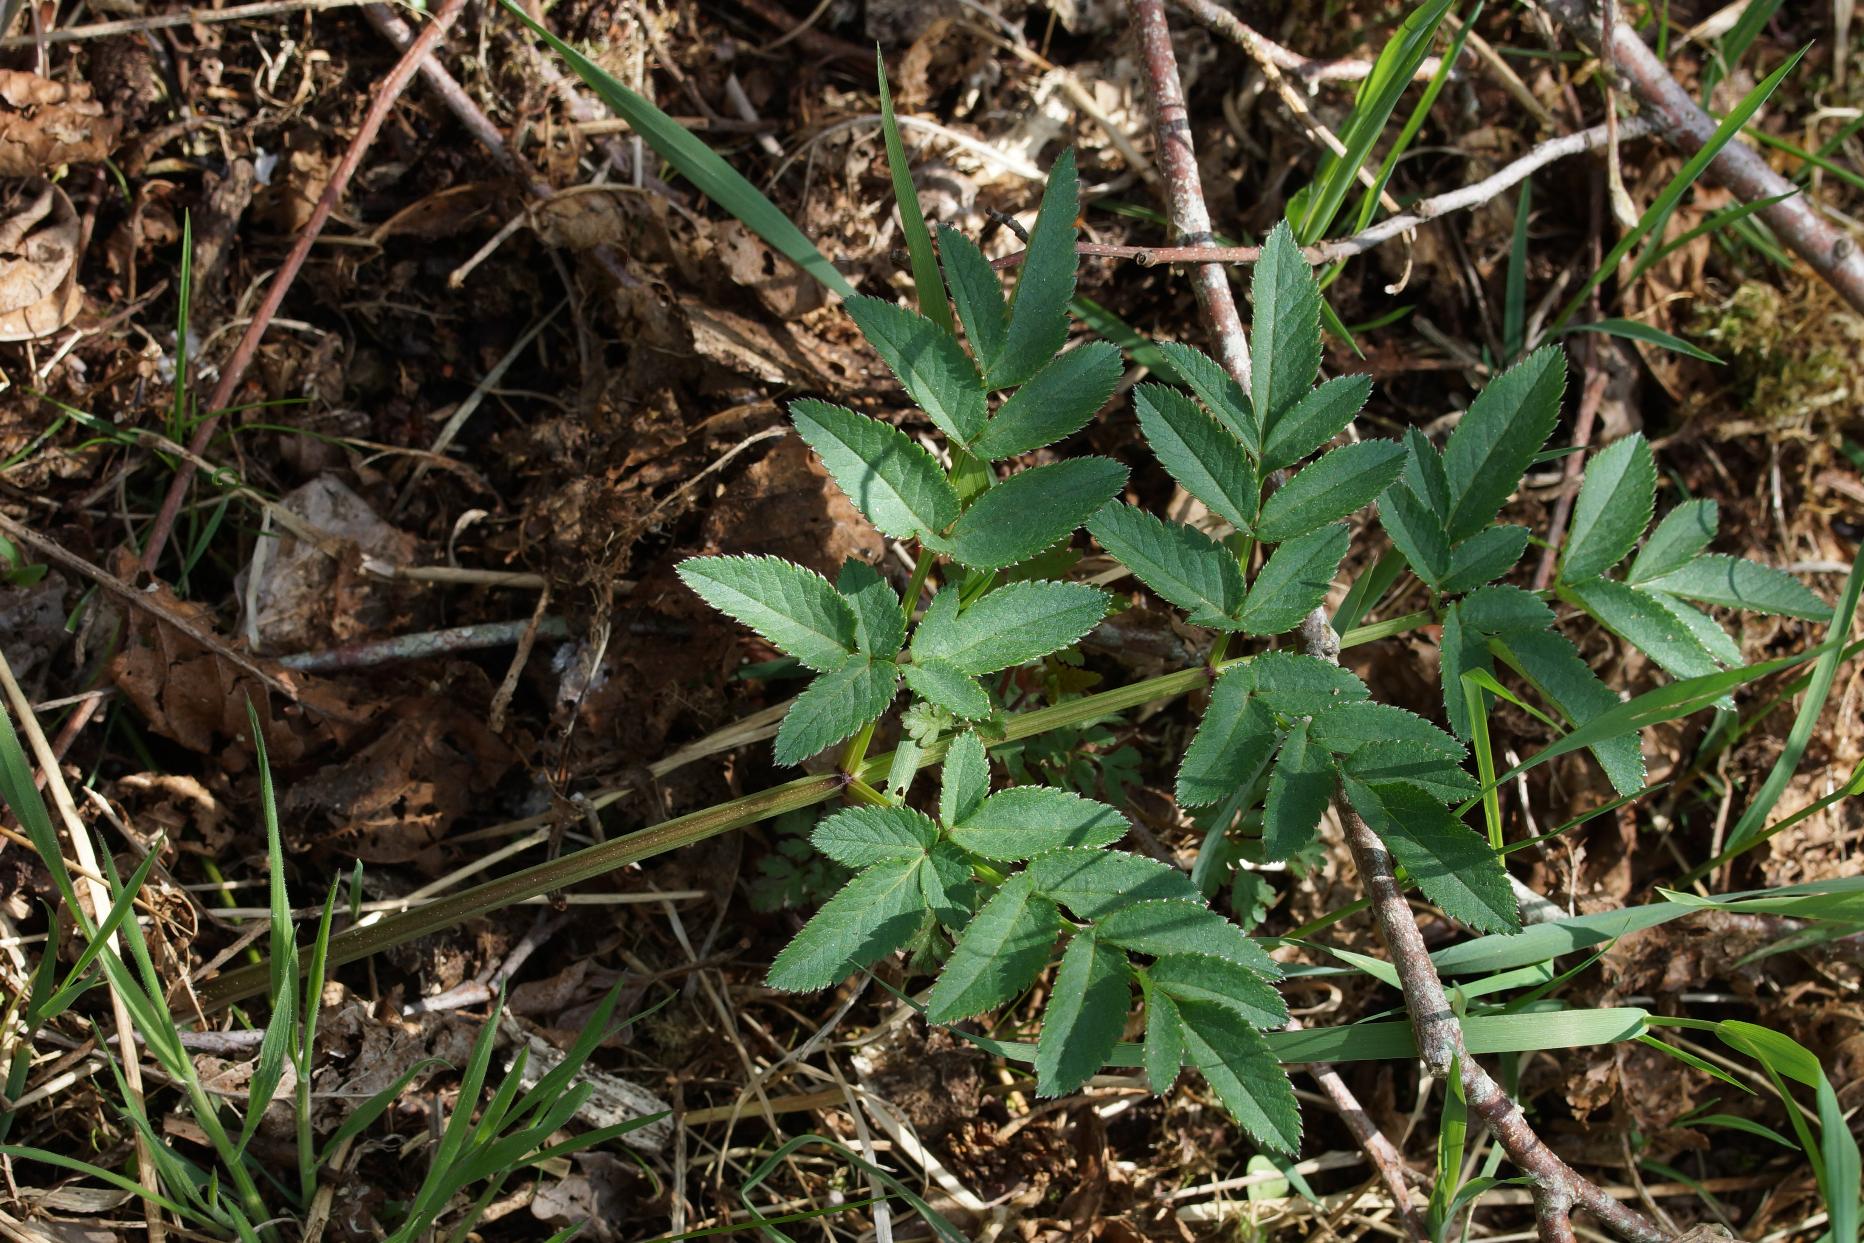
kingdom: Plantae
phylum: Tracheophyta
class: Magnoliopsida
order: Apiales
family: Apiaceae
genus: Angelica
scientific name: Angelica sylvestris
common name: Angelik
